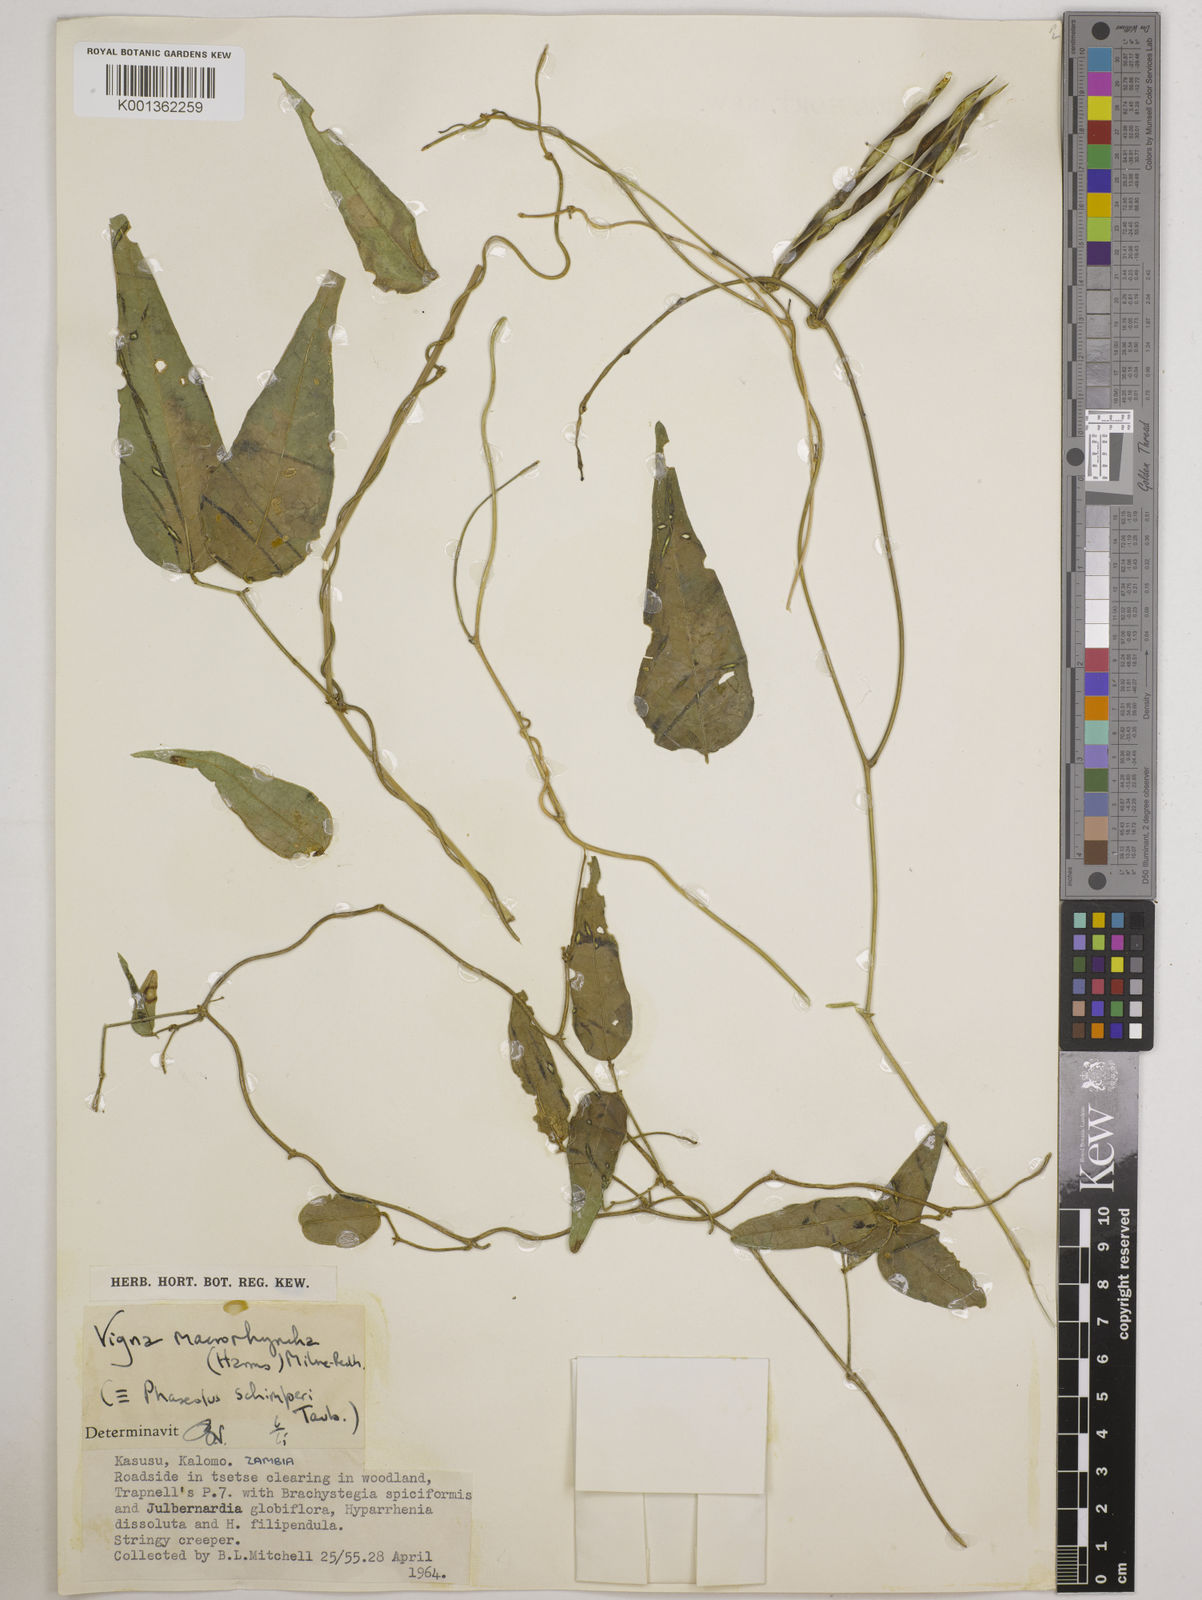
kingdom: Plantae
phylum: Tracheophyta
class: Magnoliopsida
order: Fabales
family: Fabaceae
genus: Wajira
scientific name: Wajira grahamiana
